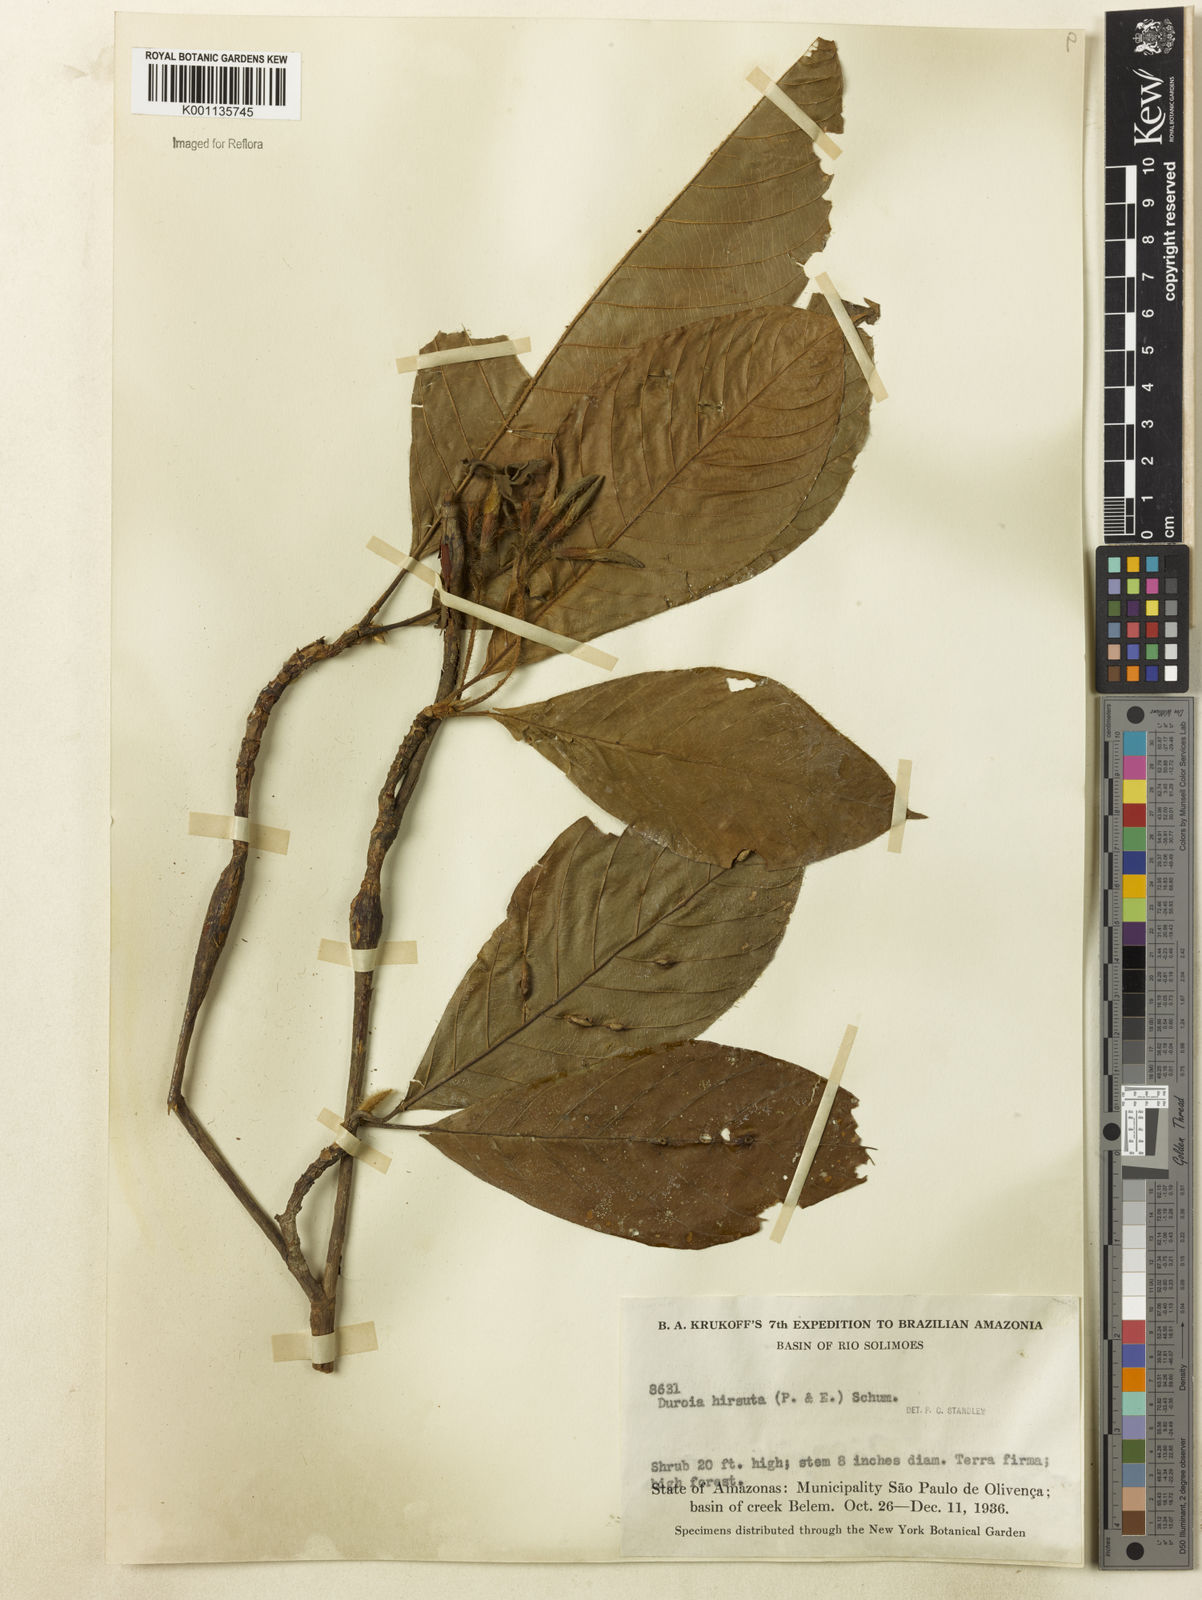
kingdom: Plantae
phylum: Tracheophyta
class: Magnoliopsida
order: Gentianales
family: Rubiaceae
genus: Duroia
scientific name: Duroia hirsuta
